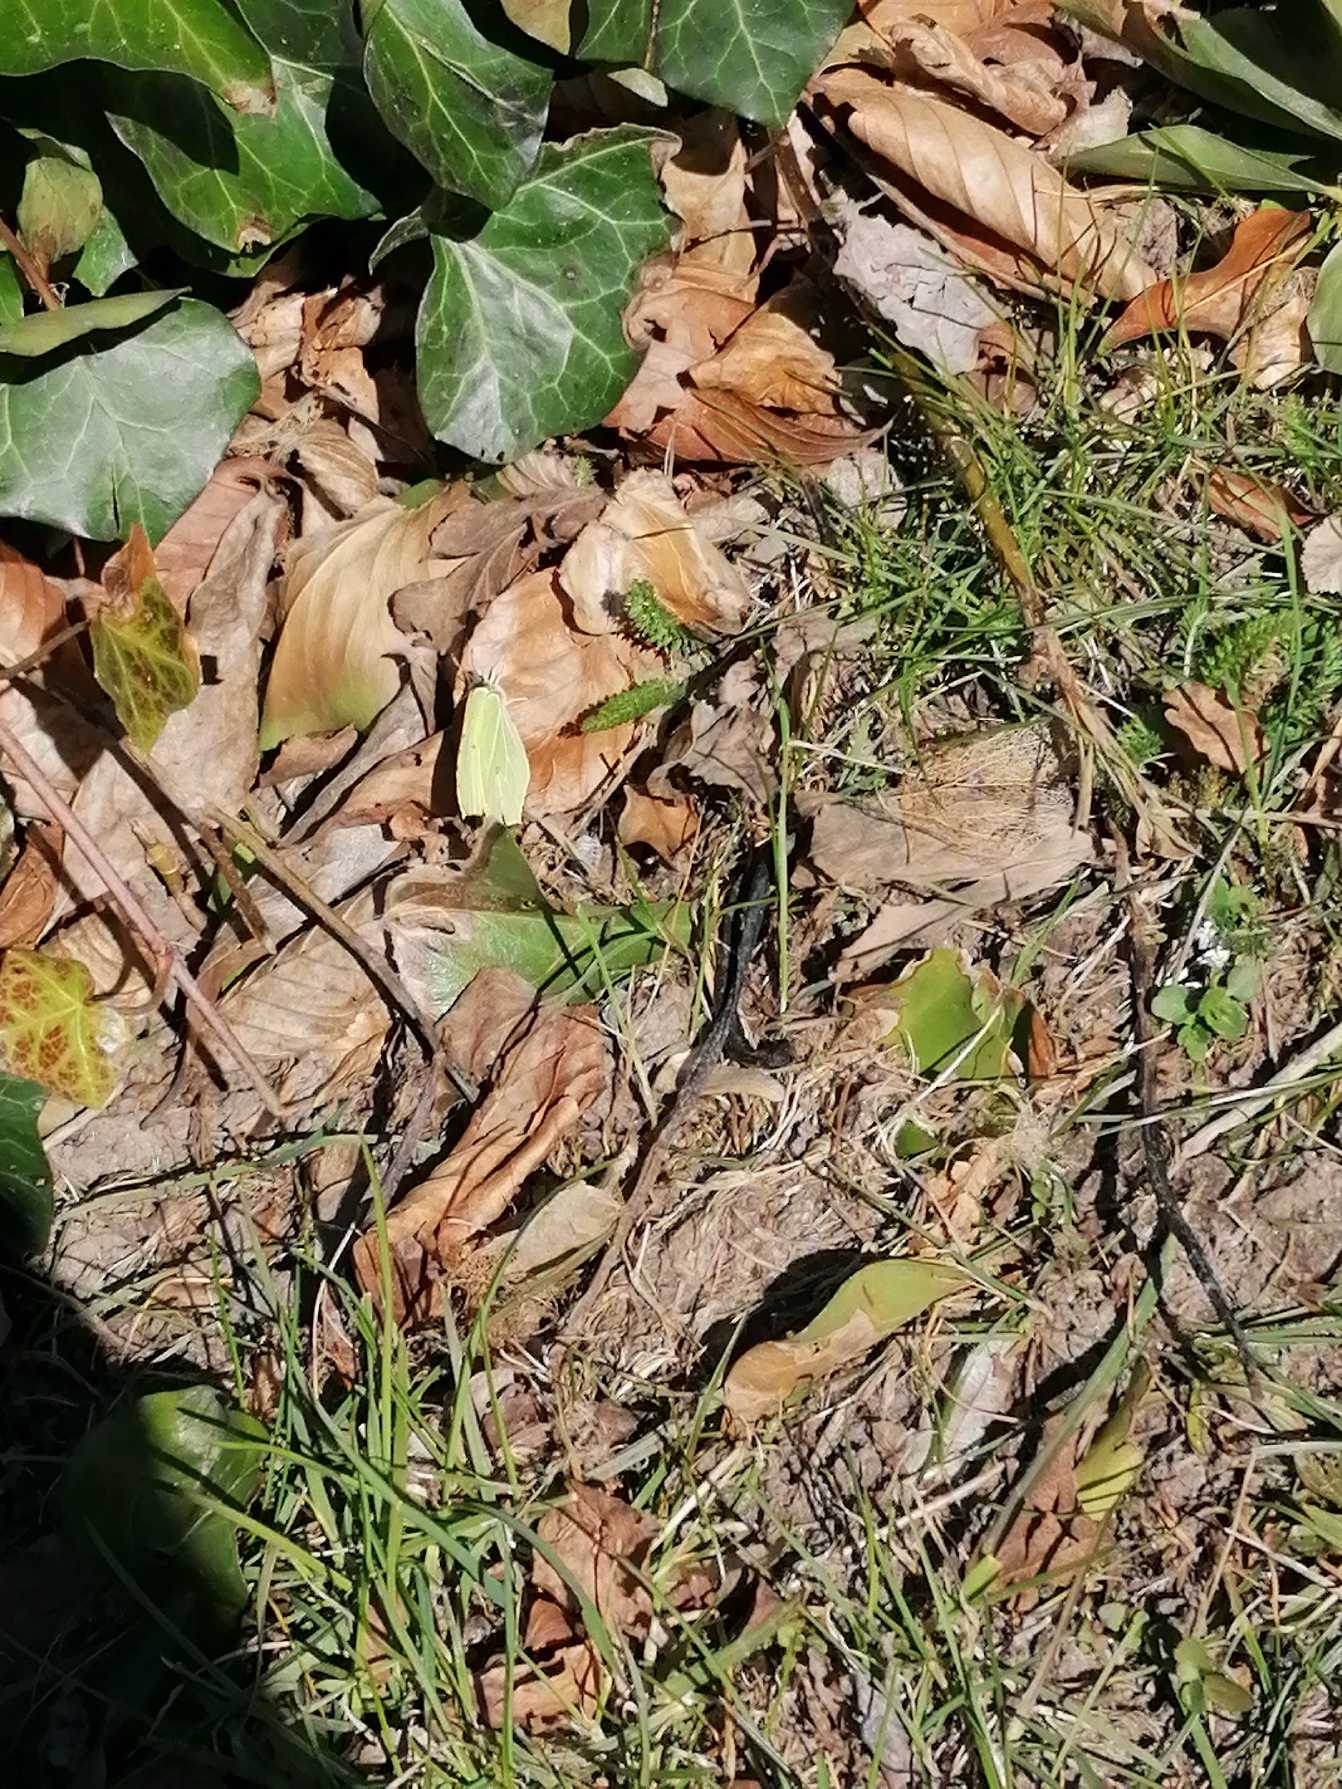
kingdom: Animalia
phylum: Arthropoda
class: Insecta
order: Lepidoptera
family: Pieridae
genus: Gonepteryx
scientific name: Gonepteryx rhamni
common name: Citronsommerfugl
